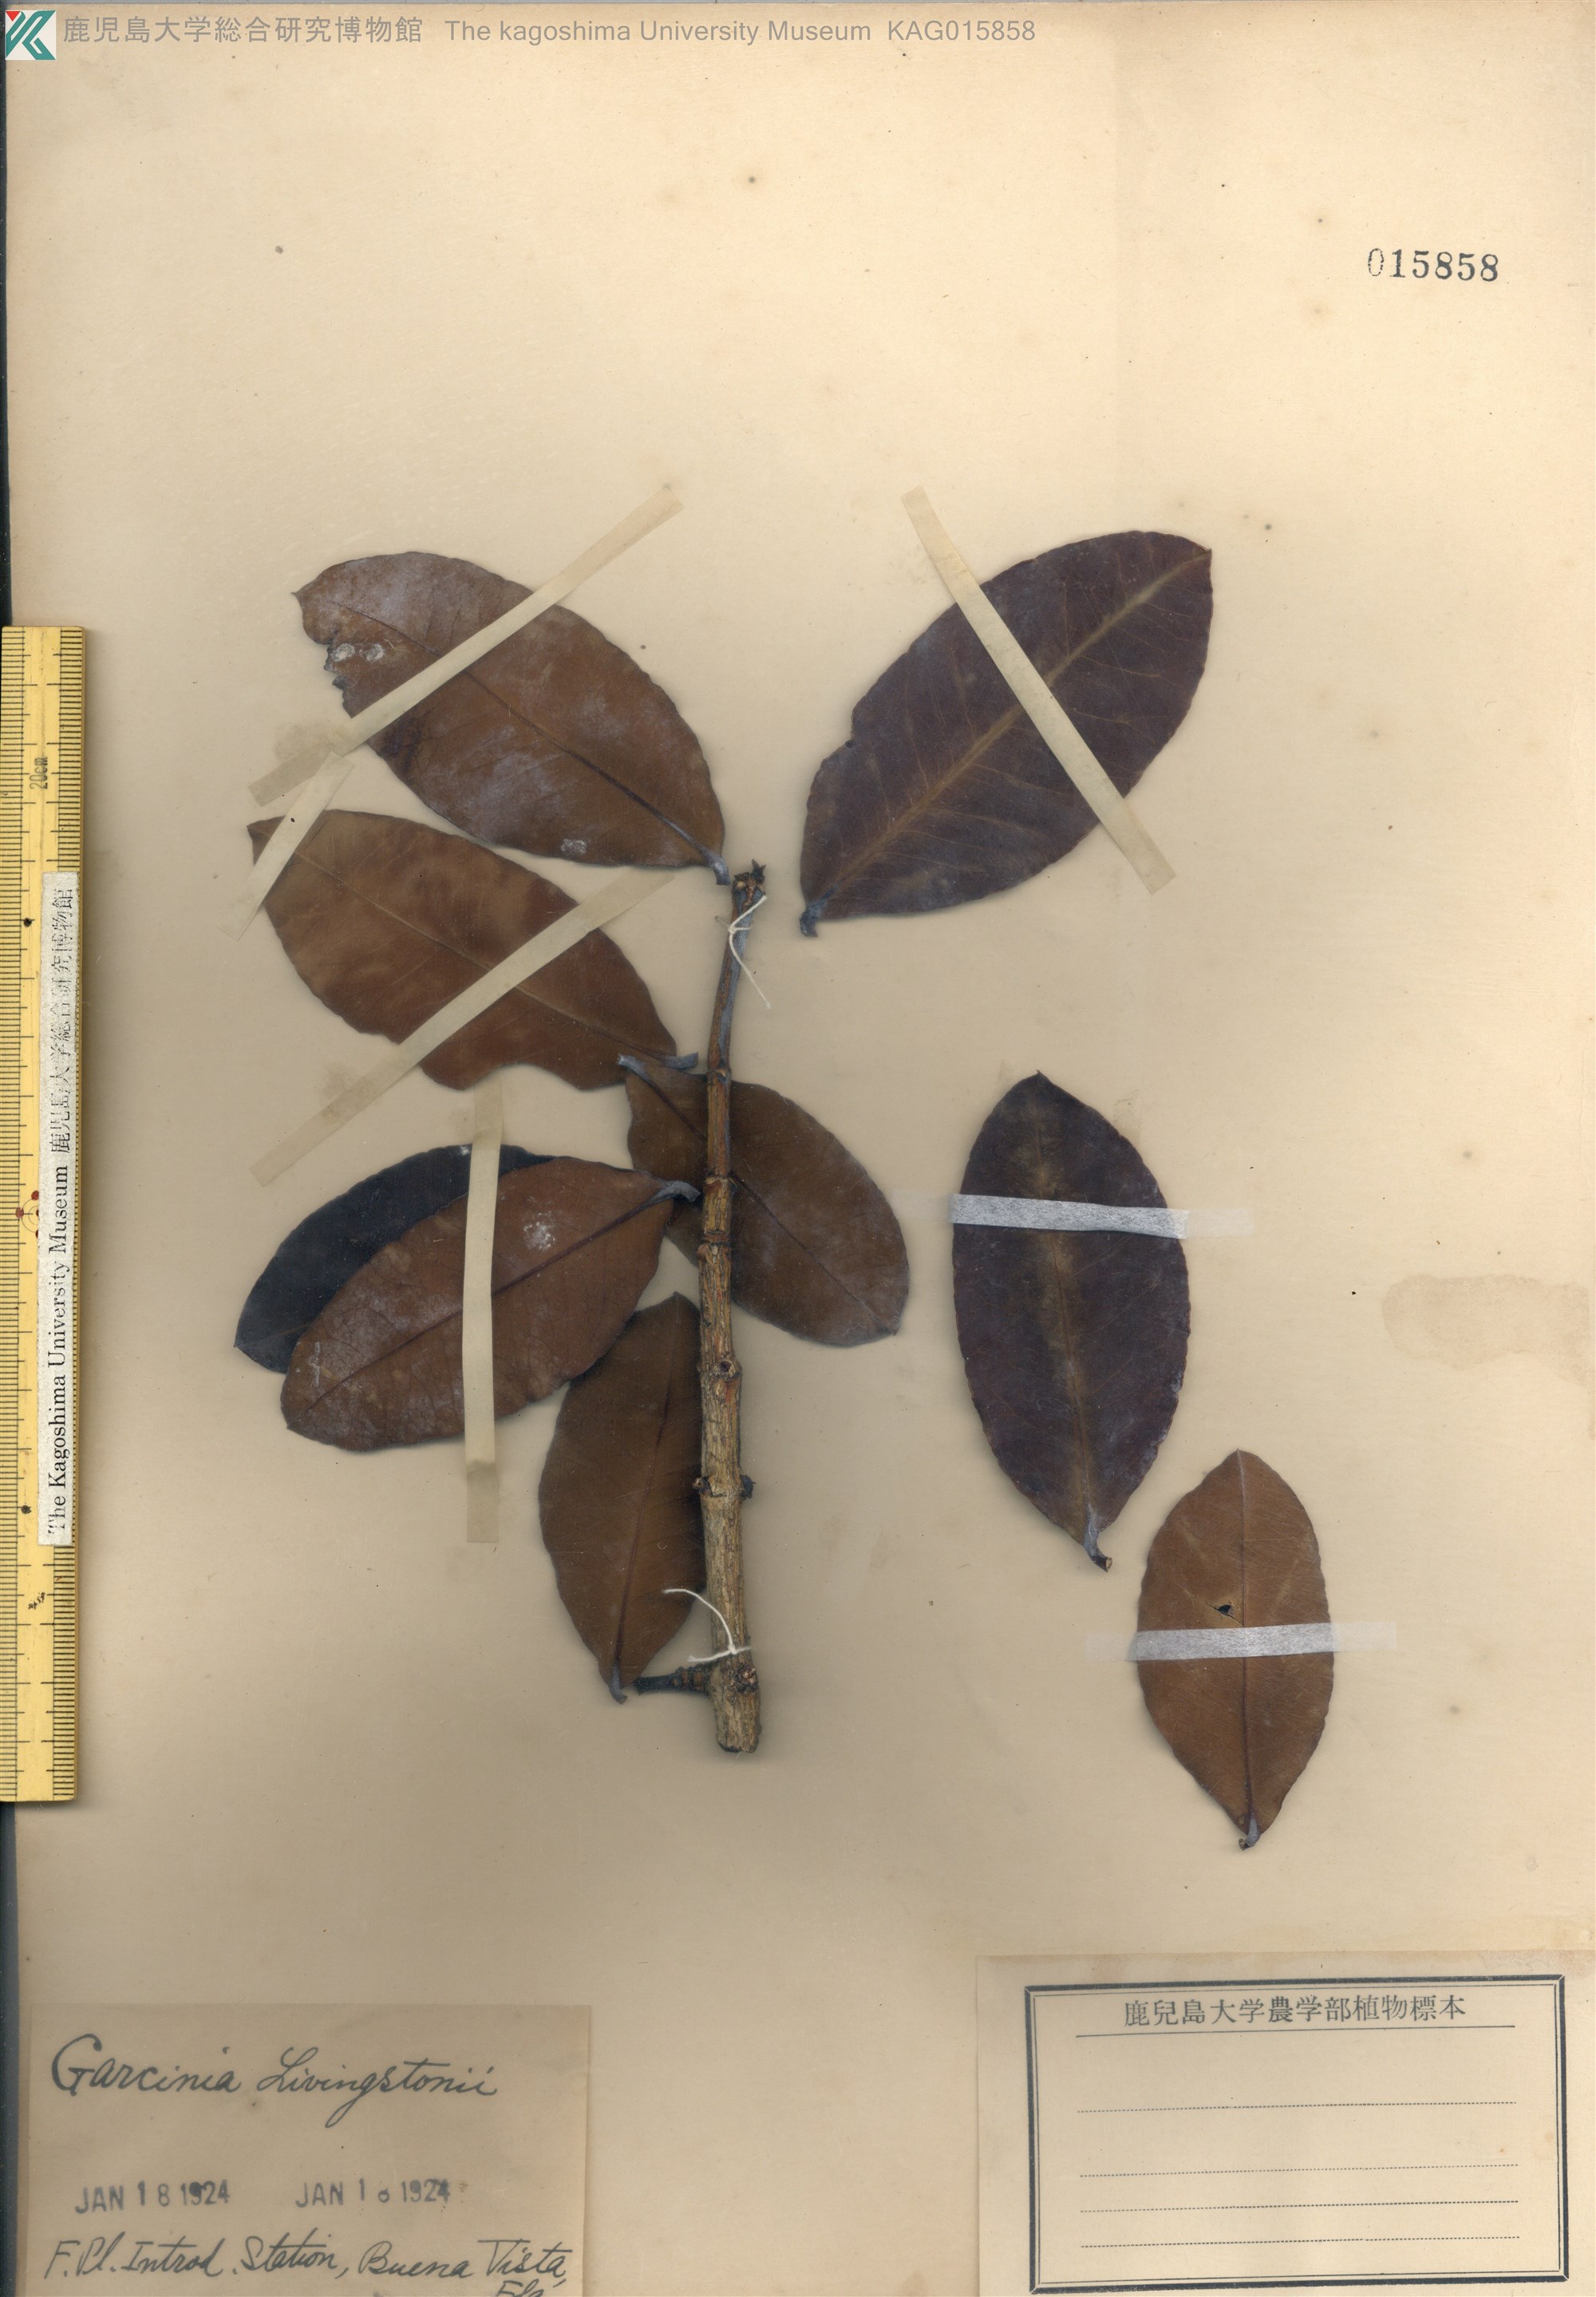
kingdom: Plantae
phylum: Tracheophyta
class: Magnoliopsida
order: Malpighiales
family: Clusiaceae
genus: Garcinia
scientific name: Garcinia livingstonei
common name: African mangosteen
